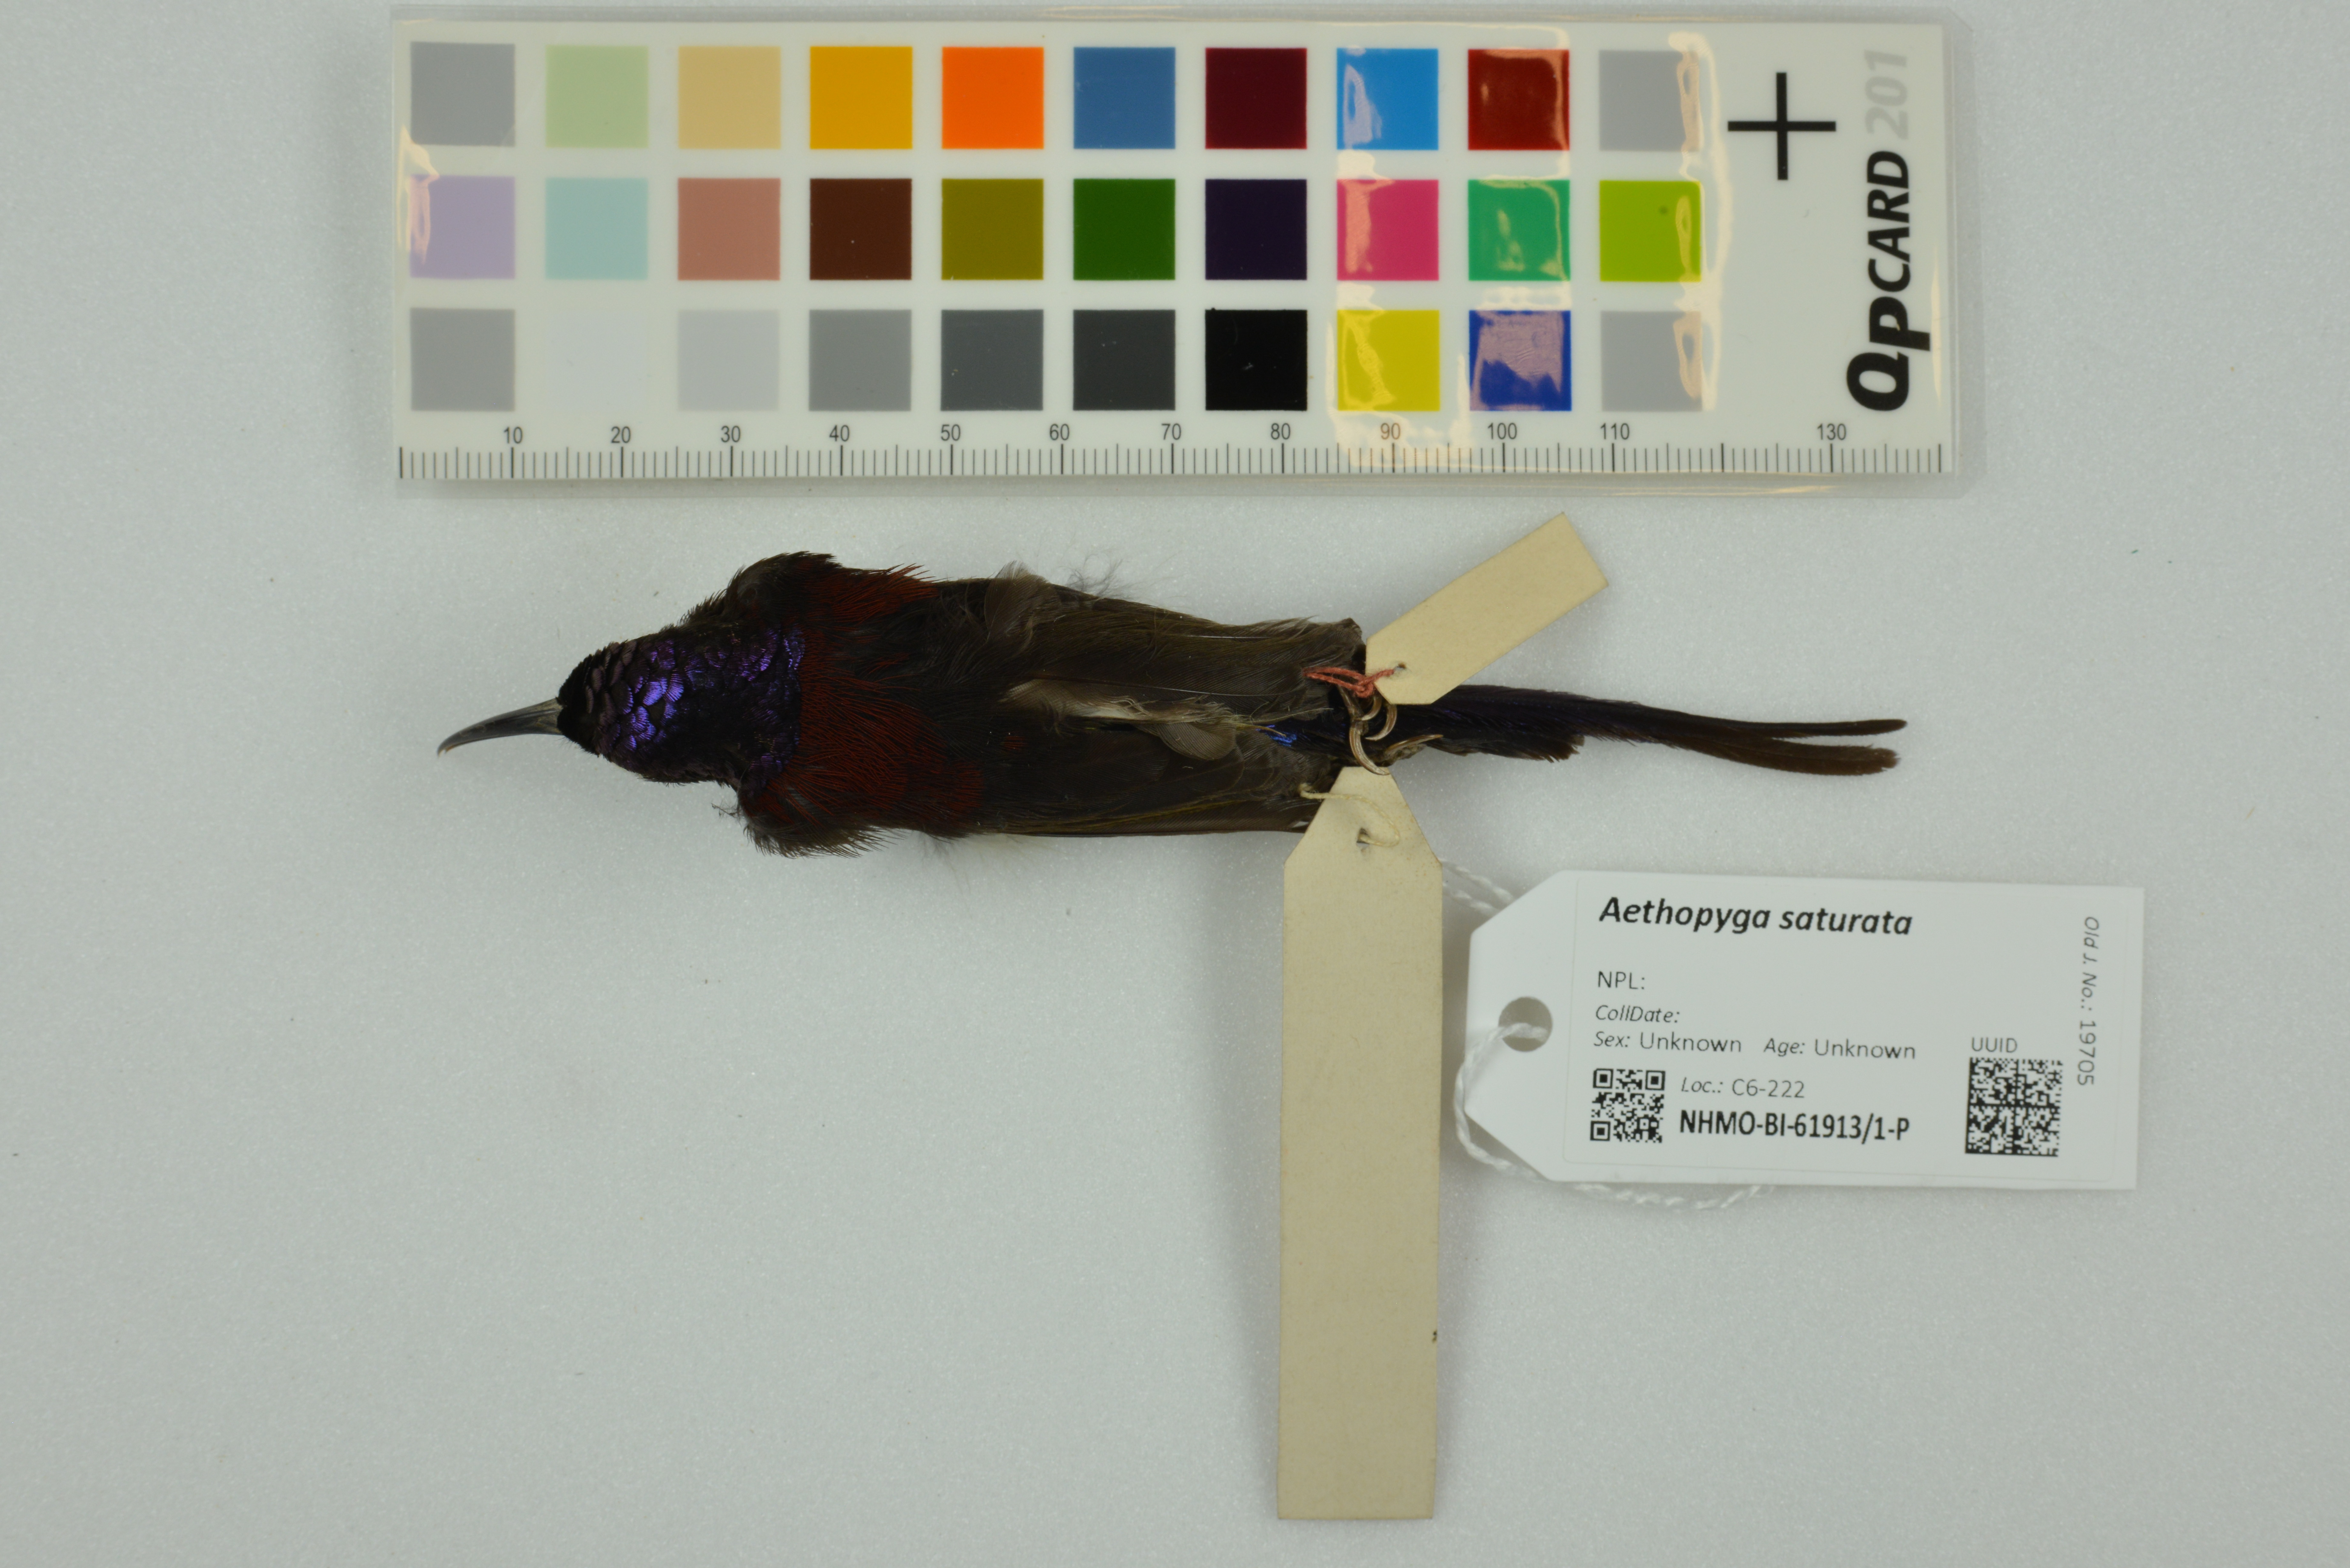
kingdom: Animalia
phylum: Chordata
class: Aves
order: Passeriformes
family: Nectariniidae
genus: Aethopyga
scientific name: Aethopyga saturata
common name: Black-throated sunbird
